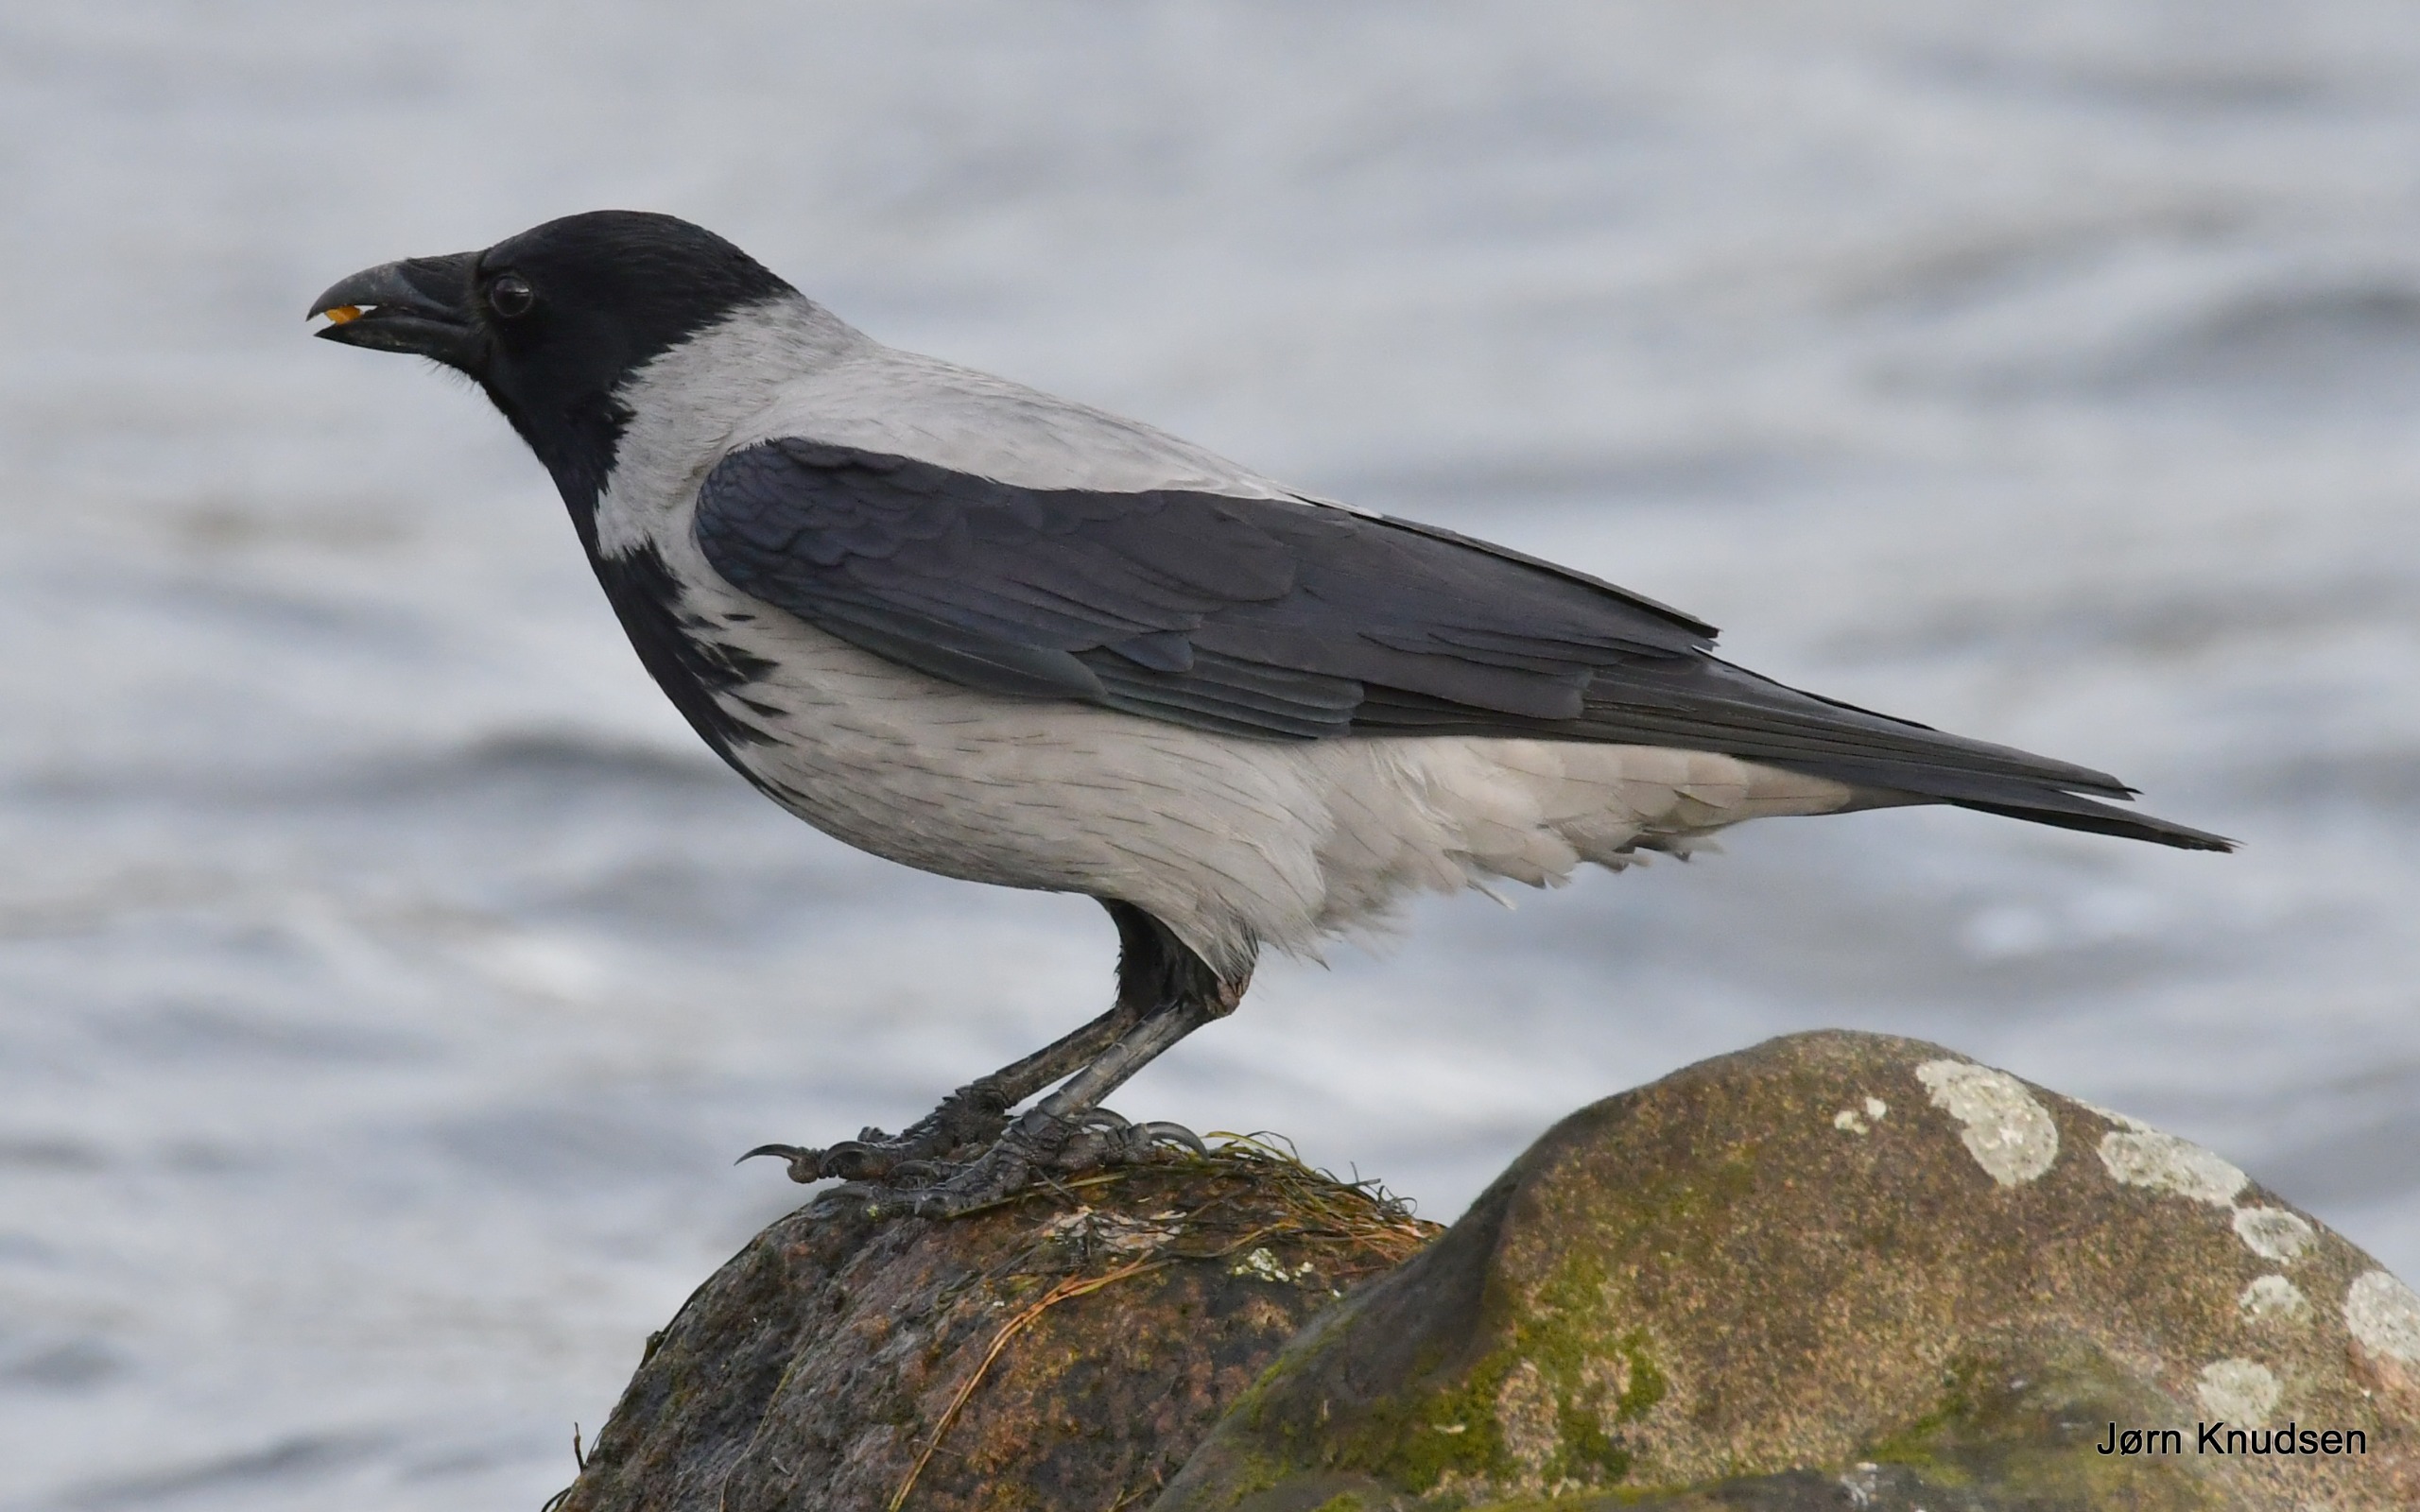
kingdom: Animalia
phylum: Chordata
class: Aves
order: Passeriformes
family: Corvidae
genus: Corvus
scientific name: Corvus cornix
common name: Gråkrage
